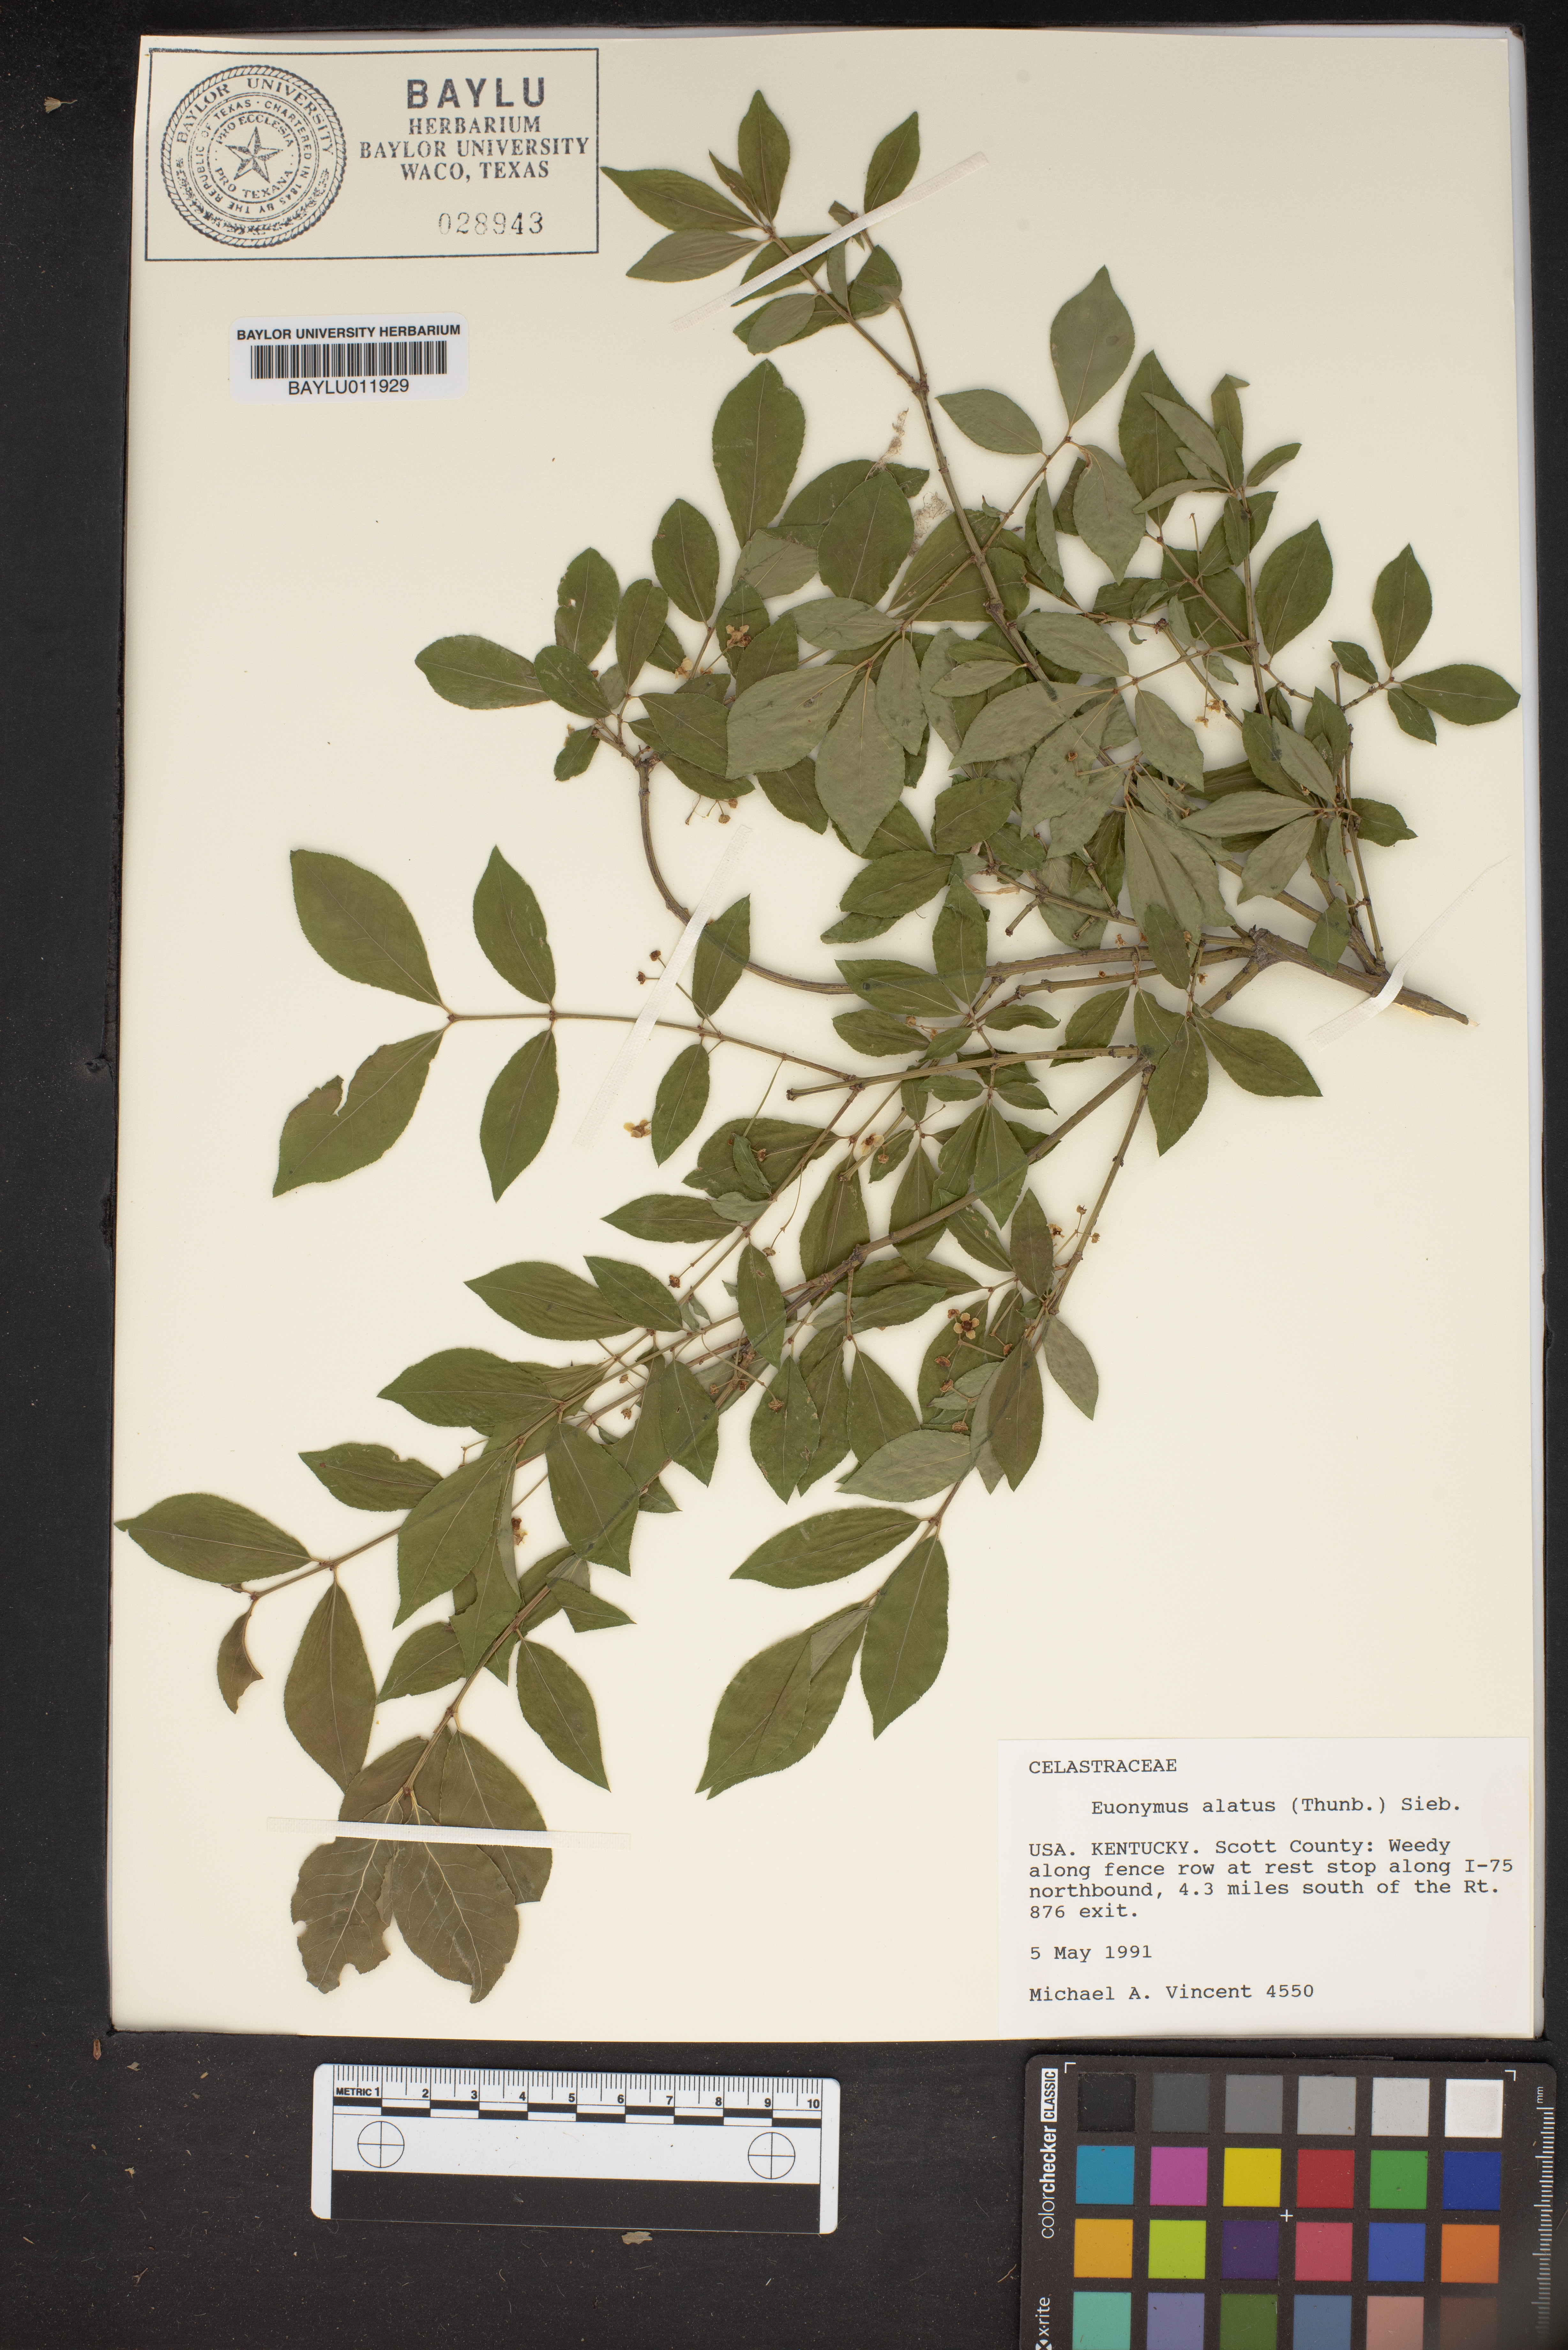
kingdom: Plantae
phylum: Tracheophyta
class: Magnoliopsida
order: Celastrales
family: Celastraceae
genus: Euonymus
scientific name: Euonymus alatus
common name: Winged euonymus
